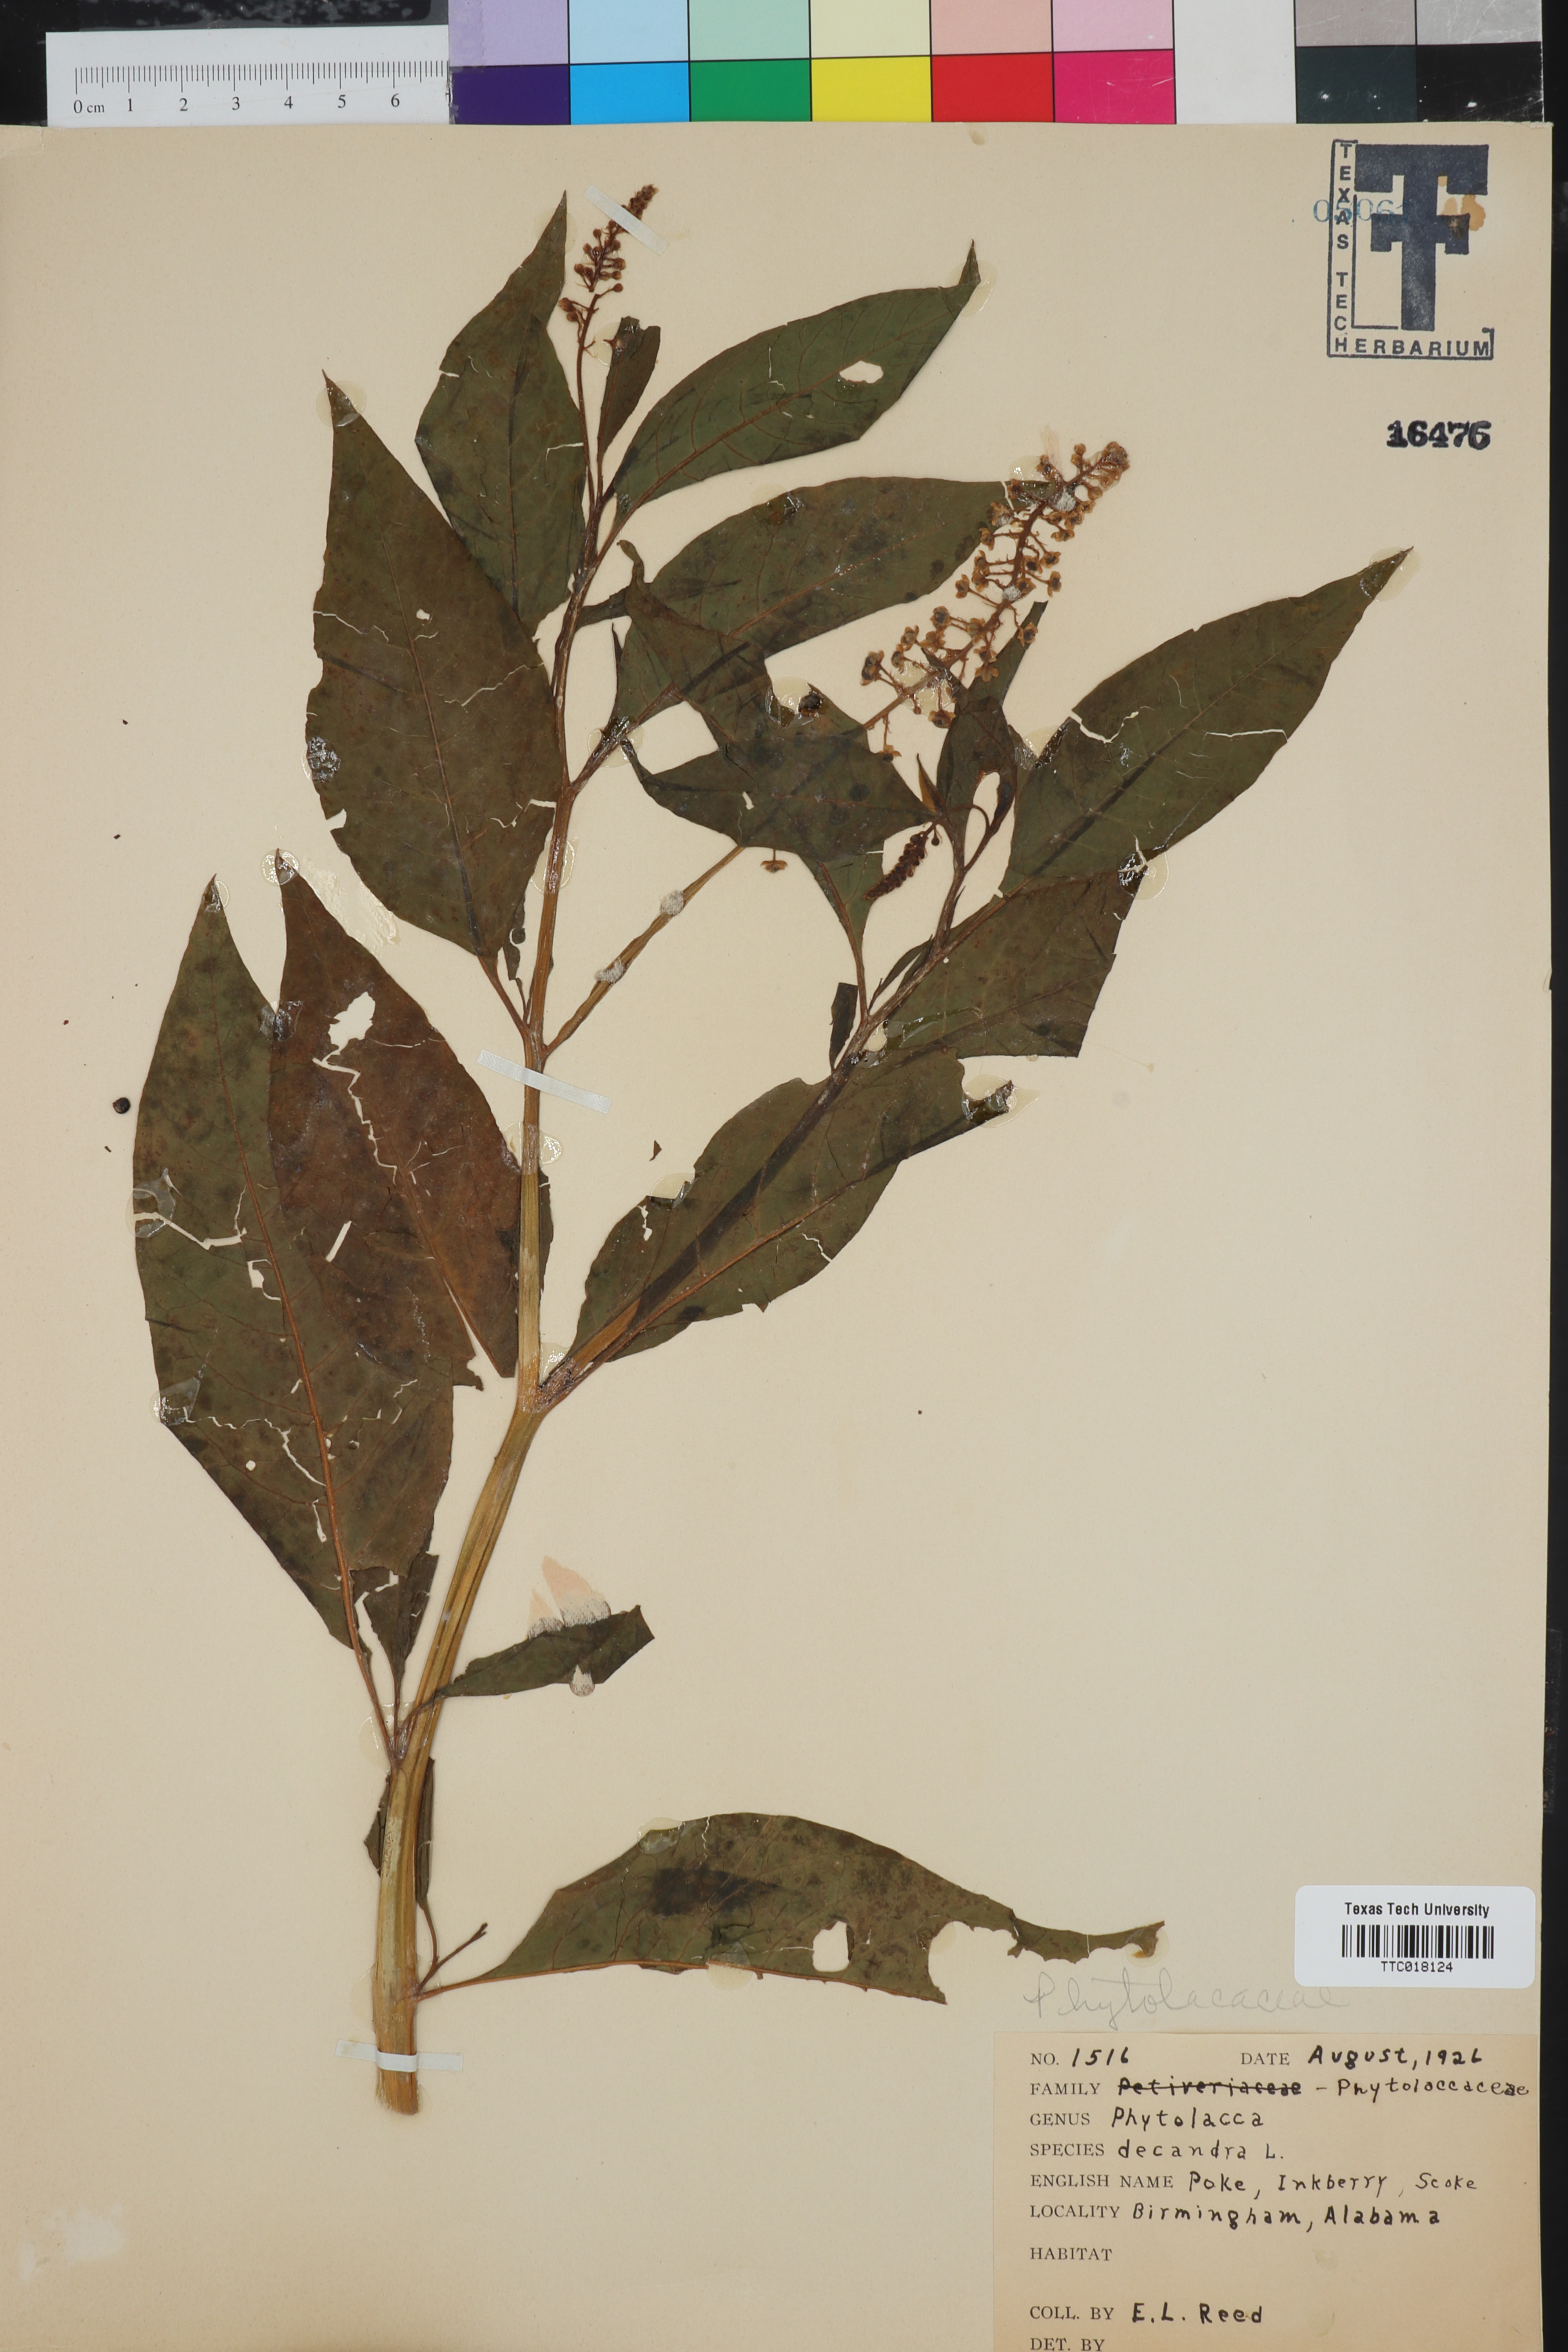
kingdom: Plantae
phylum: Tracheophyta
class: Magnoliopsida
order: Caryophyllales
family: Phytolaccaceae
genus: Phytolacca
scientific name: Phytolacca americana
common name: American pokeweed
